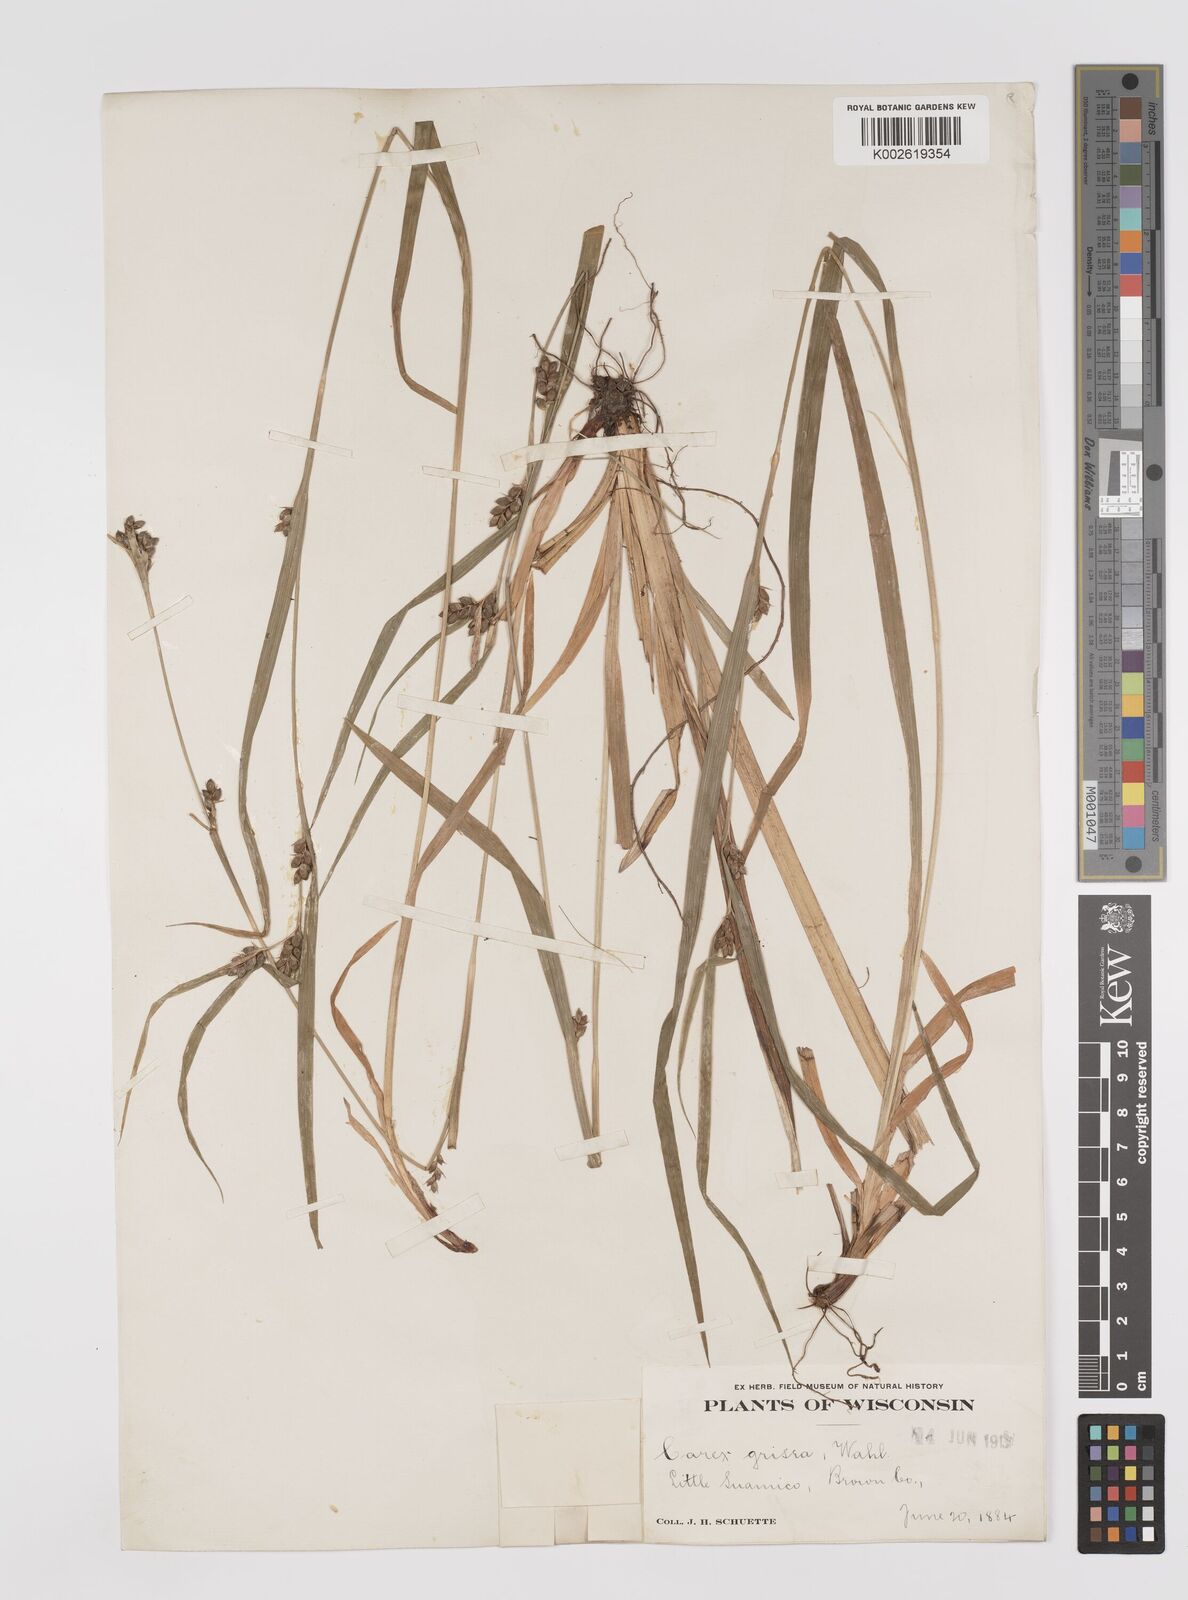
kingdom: Plantae
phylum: Tracheophyta
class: Liliopsida
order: Poales
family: Cyperaceae
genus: Carex
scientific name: Carex grisea
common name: Eastern narrow-leaved sedge
